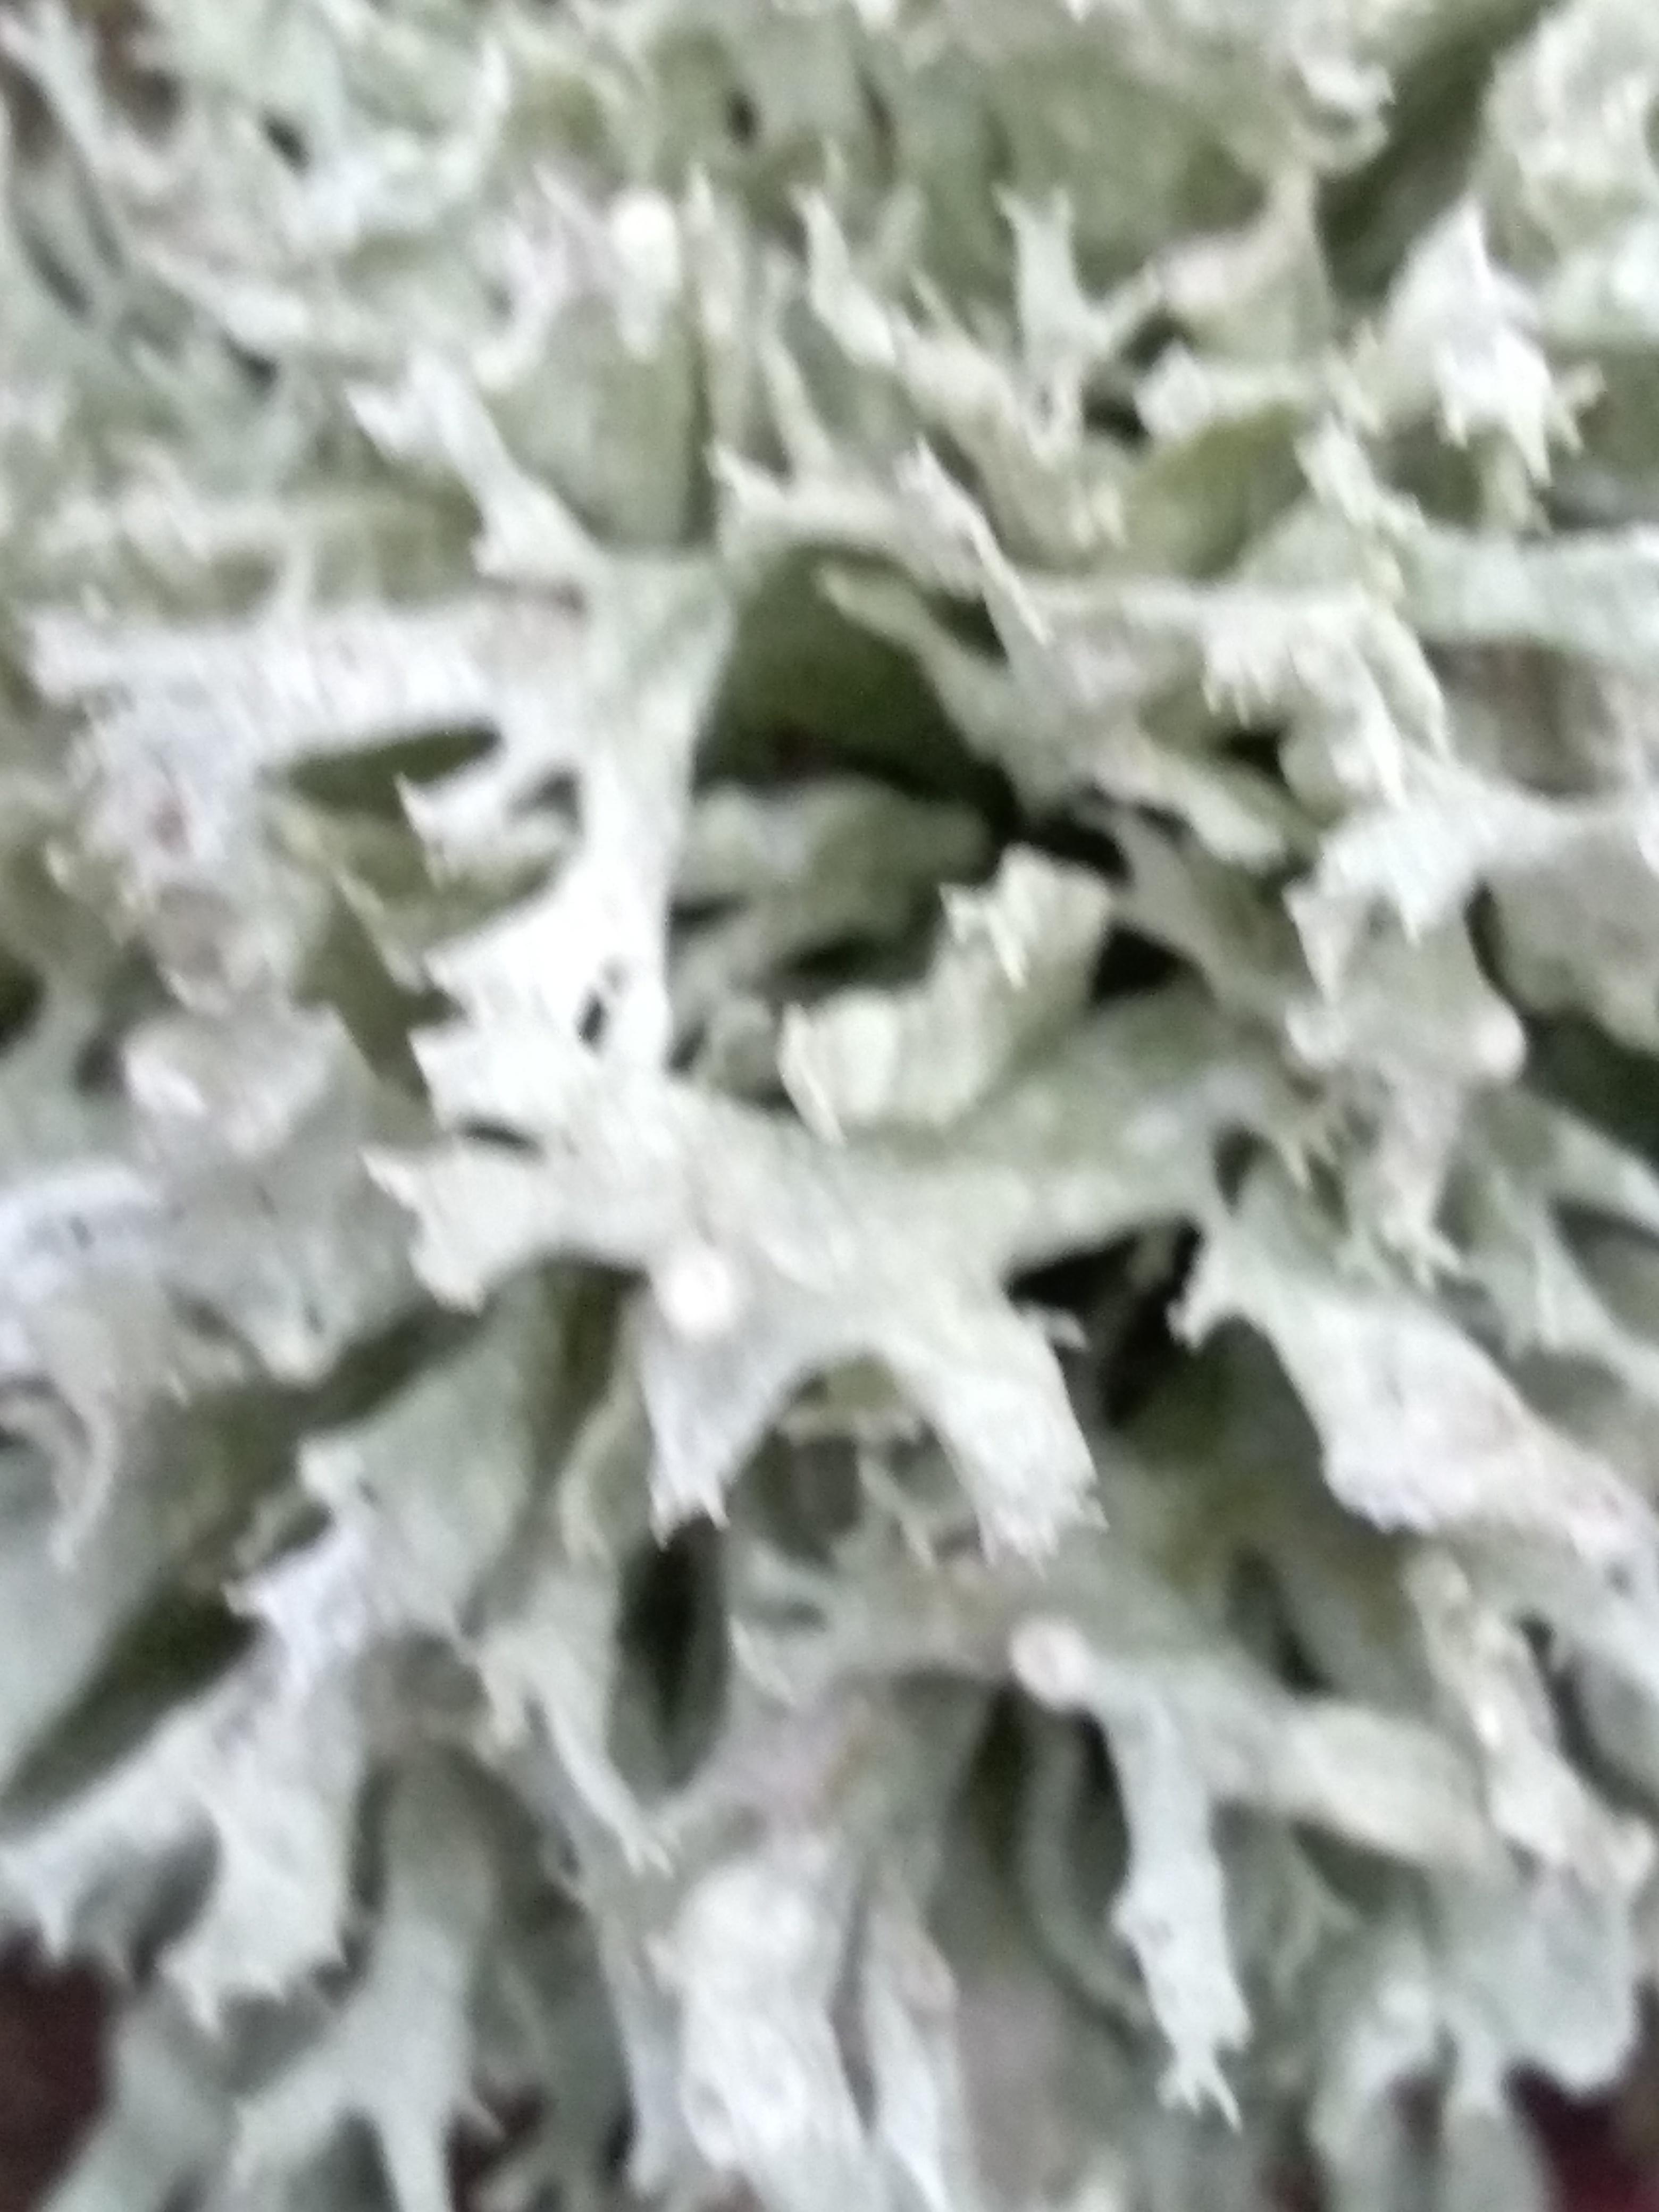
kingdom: Fungi
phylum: Ascomycota
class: Lecanoromycetes
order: Lecanorales
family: Parmeliaceae
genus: Evernia
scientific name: Evernia prunastri
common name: almindelig slåenlav
